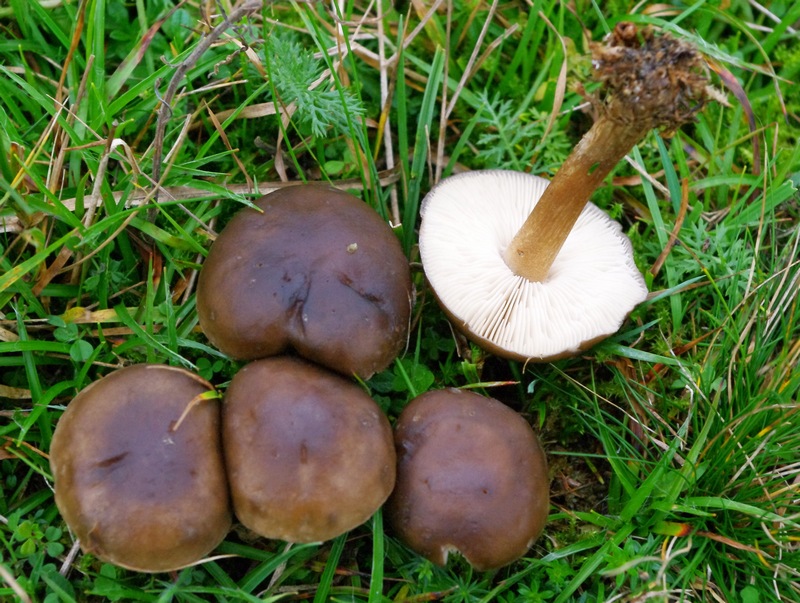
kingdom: Fungi
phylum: Basidiomycota
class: Agaricomycetes
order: Agaricales
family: Tricholomataceae
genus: Melanoleuca
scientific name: Melanoleuca polioleuca
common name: hvidbladet munkehat
